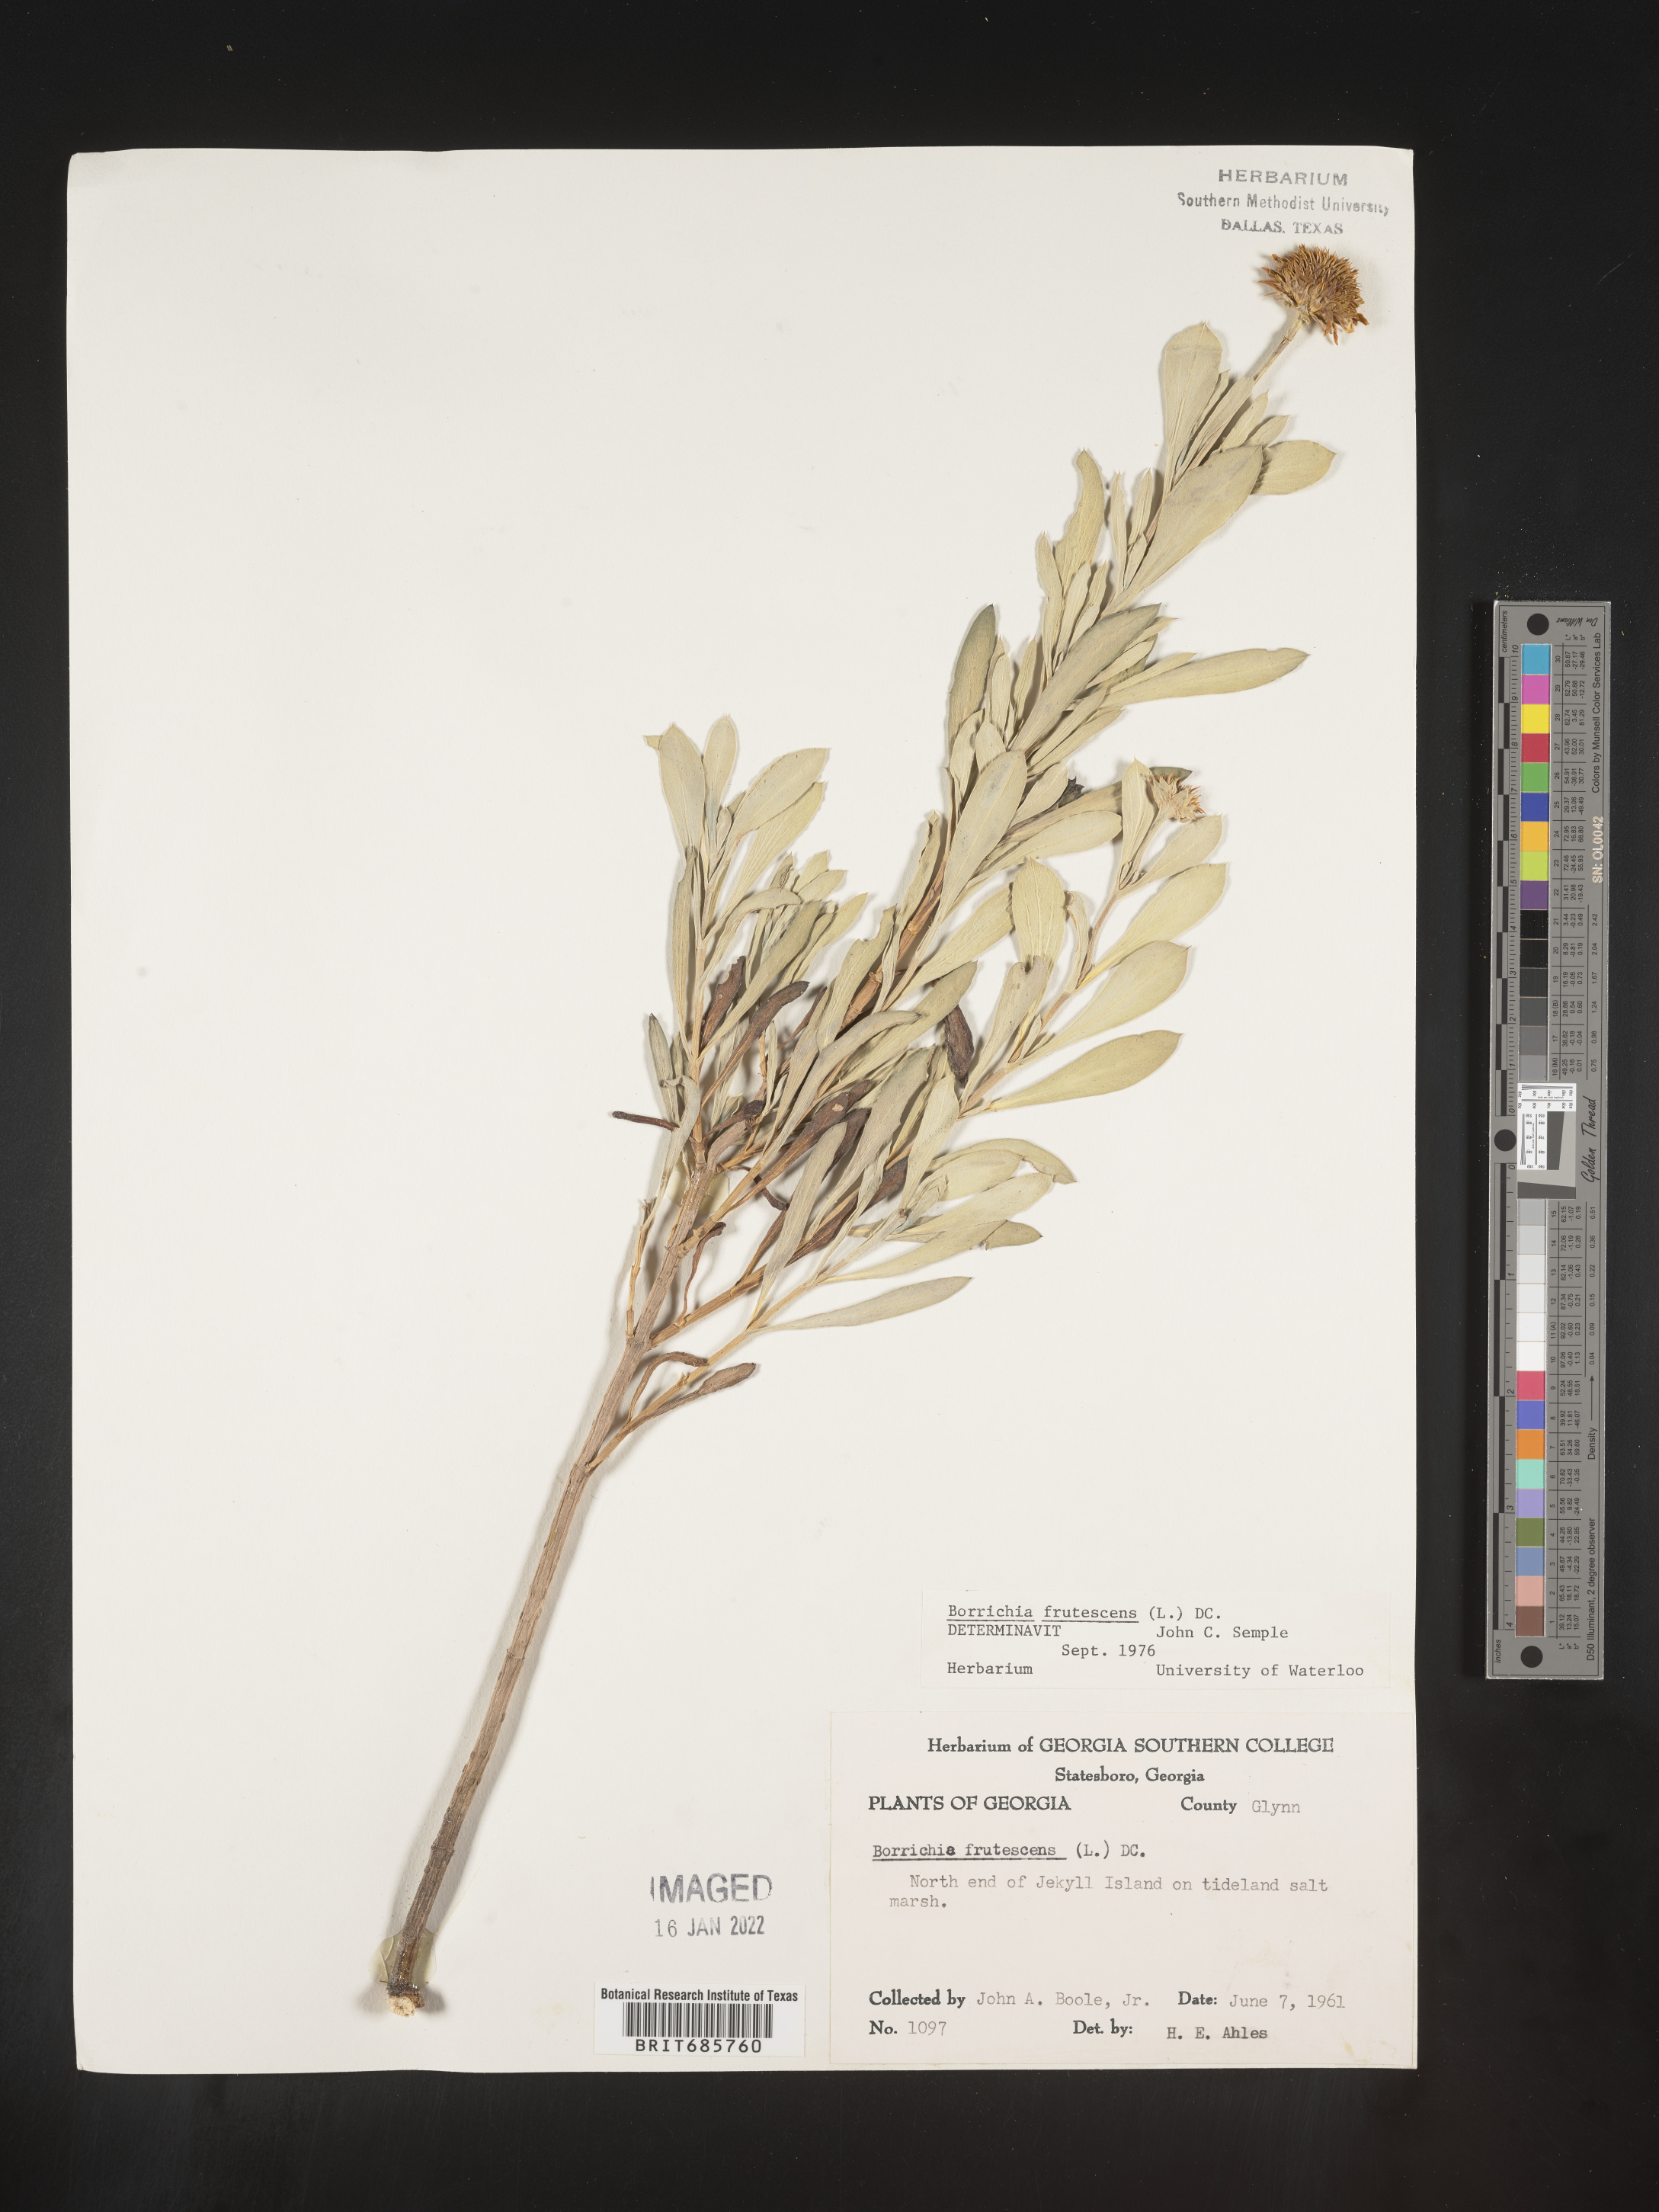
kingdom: Plantae
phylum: Tracheophyta
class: Magnoliopsida
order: Asterales
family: Asteraceae
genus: Borrichia
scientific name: Borrichia frutescens
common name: Sea oxeye
